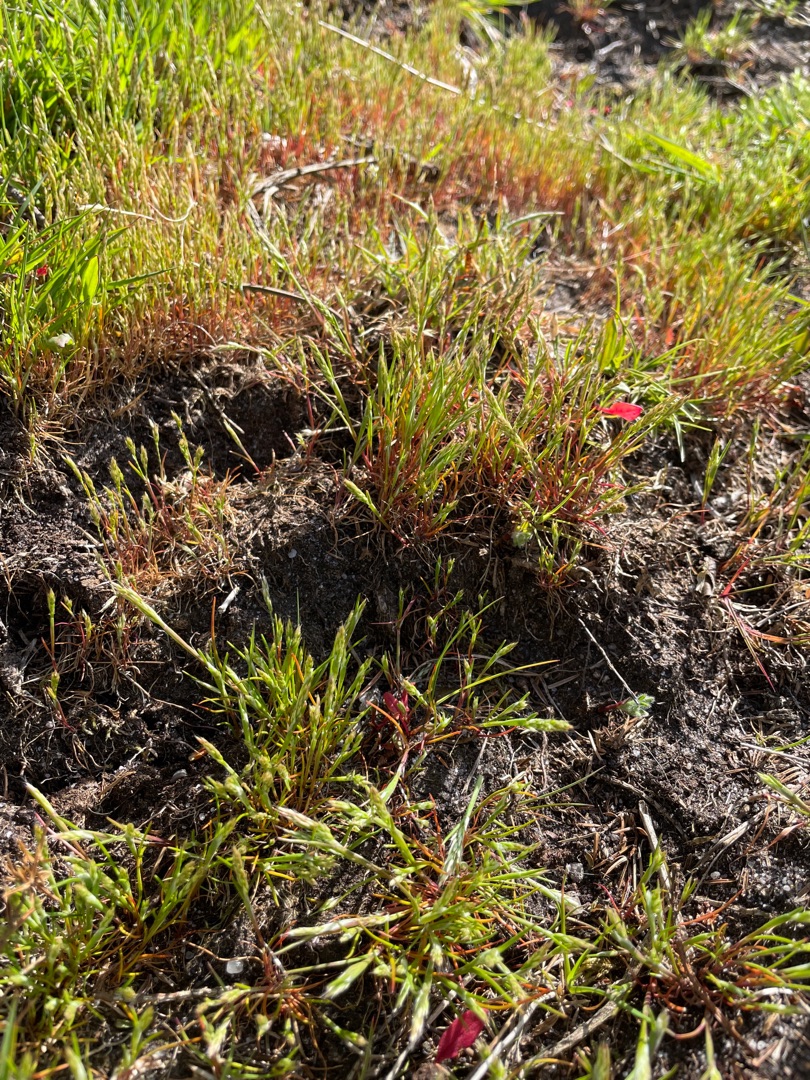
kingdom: Plantae
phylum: Tracheophyta
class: Liliopsida
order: Poales
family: Poaceae
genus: Aira
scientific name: Aira praecox
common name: Tidlig dværgbunke
